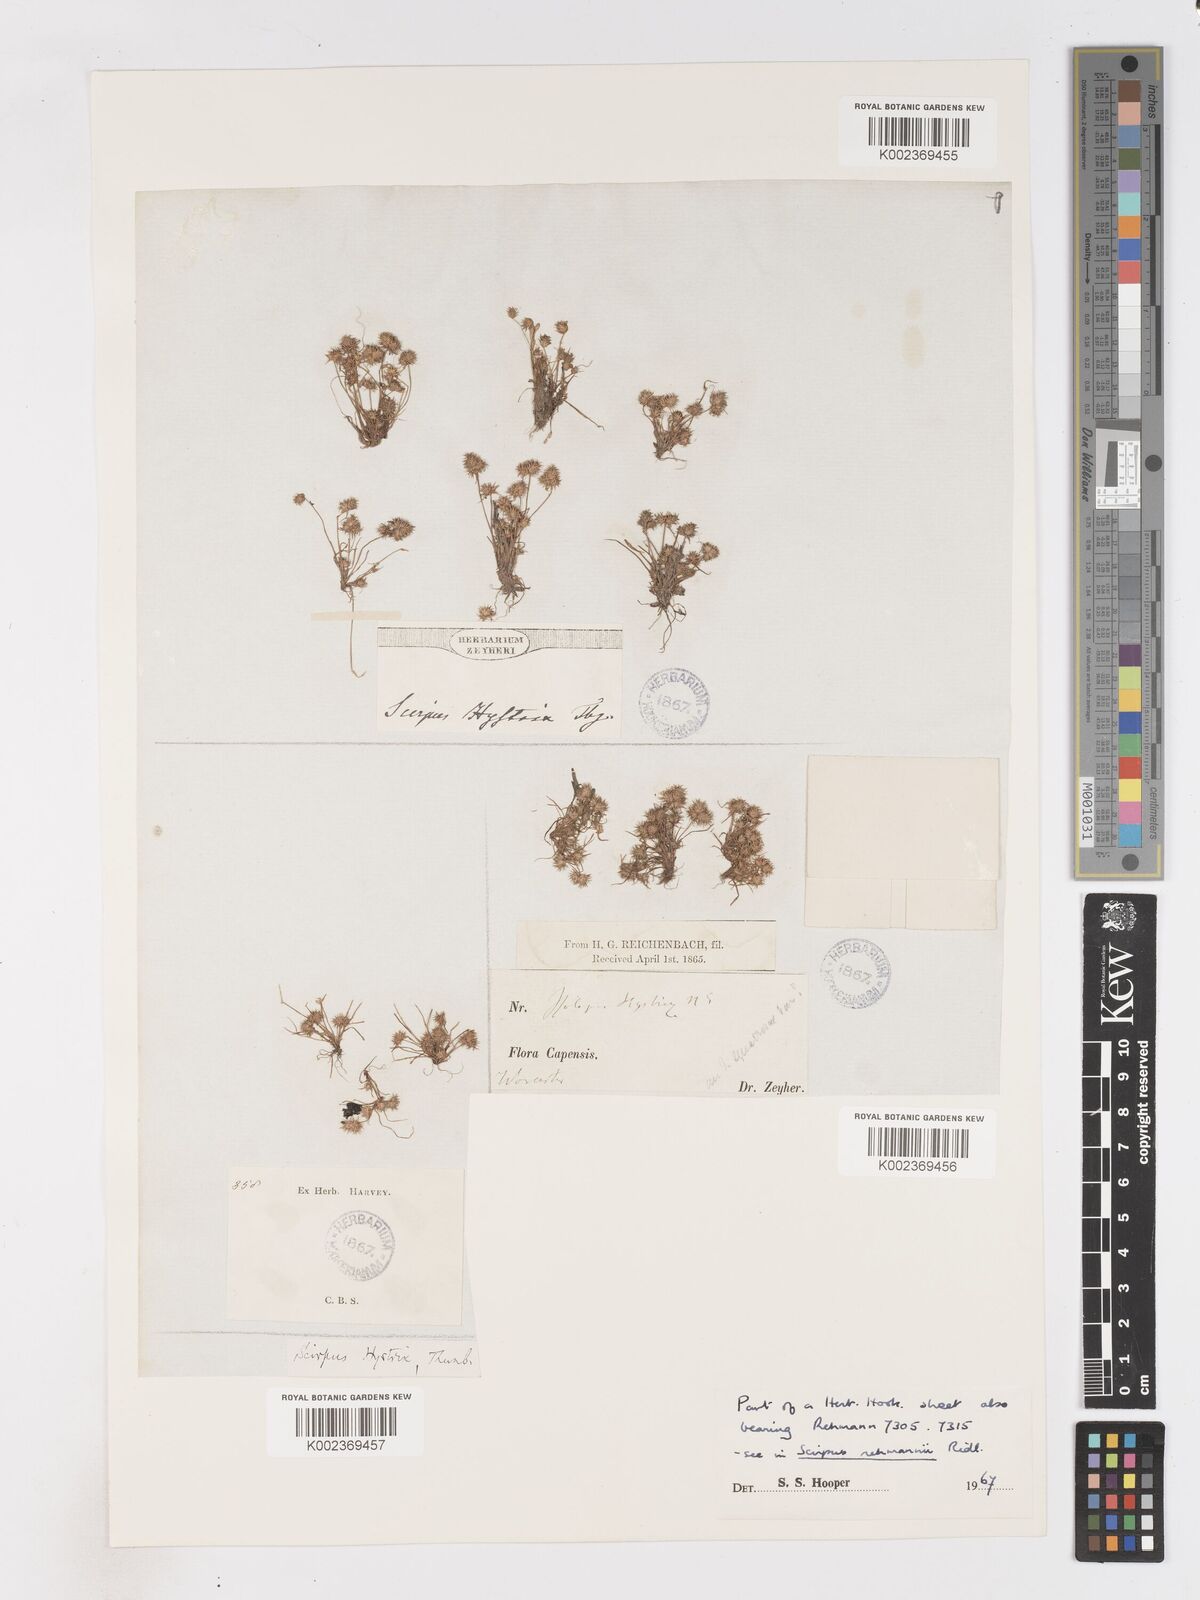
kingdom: Plantae
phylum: Tracheophyta
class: Liliopsida
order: Poales
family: Cyperaceae
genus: Isolepis
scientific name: Isolepis hystrix
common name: Bottlebrush bulrush
